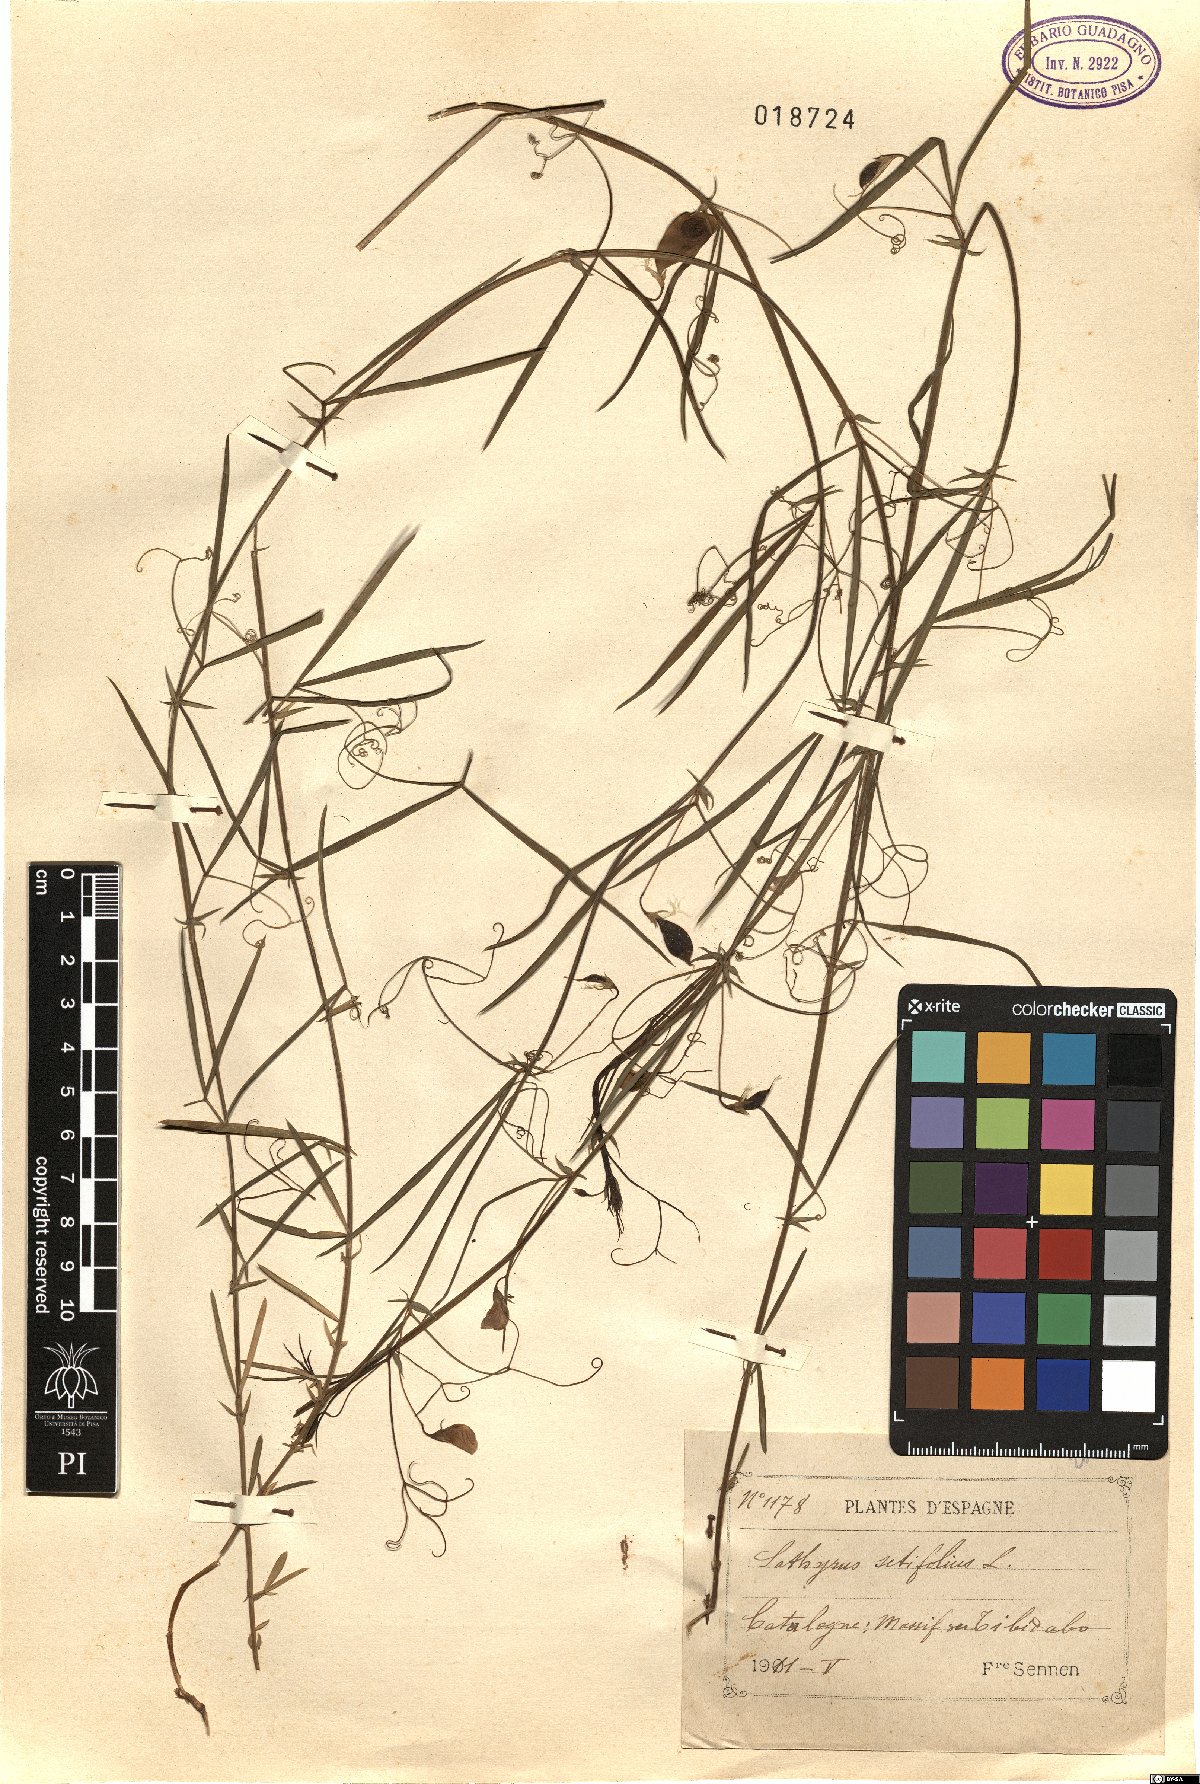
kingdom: Plantae
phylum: Tracheophyta
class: Magnoliopsida
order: Fabales
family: Fabaceae
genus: Lathyrus
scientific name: Lathyrus setifolius
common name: Brown vetchling
